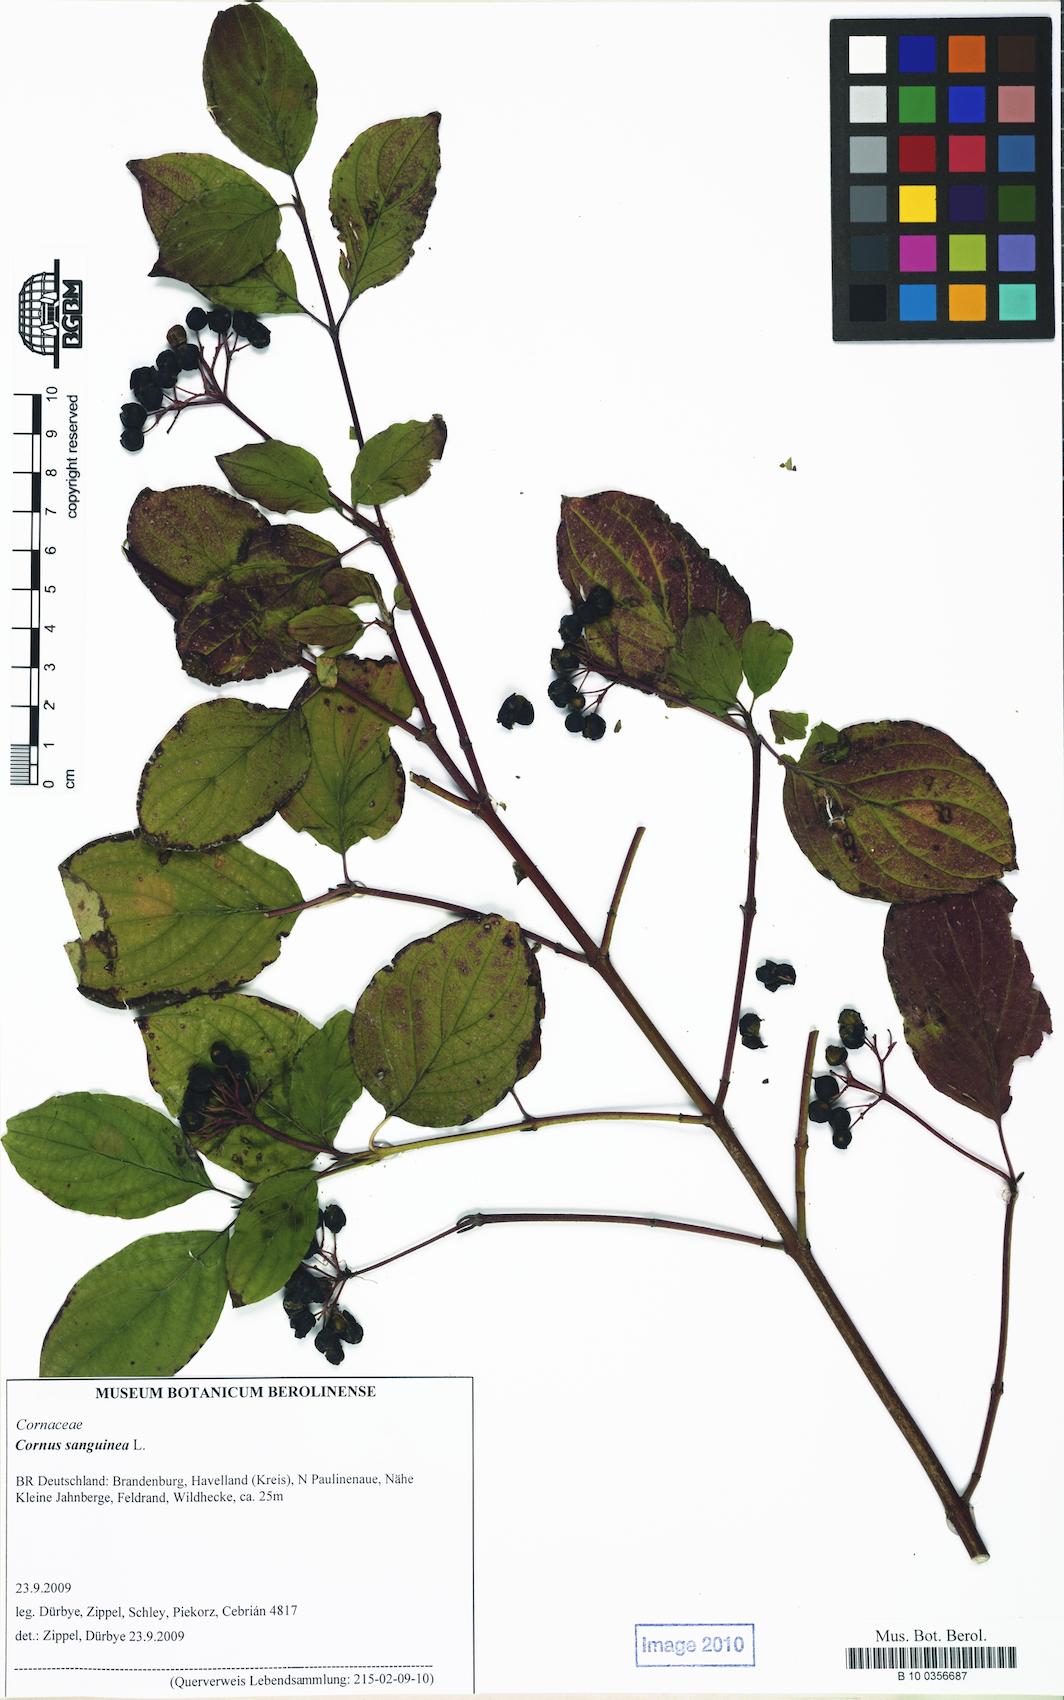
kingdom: Plantae
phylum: Tracheophyta
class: Magnoliopsida
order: Cornales
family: Cornaceae
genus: Cornus
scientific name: Cornus sanguinea
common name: Dogwood
